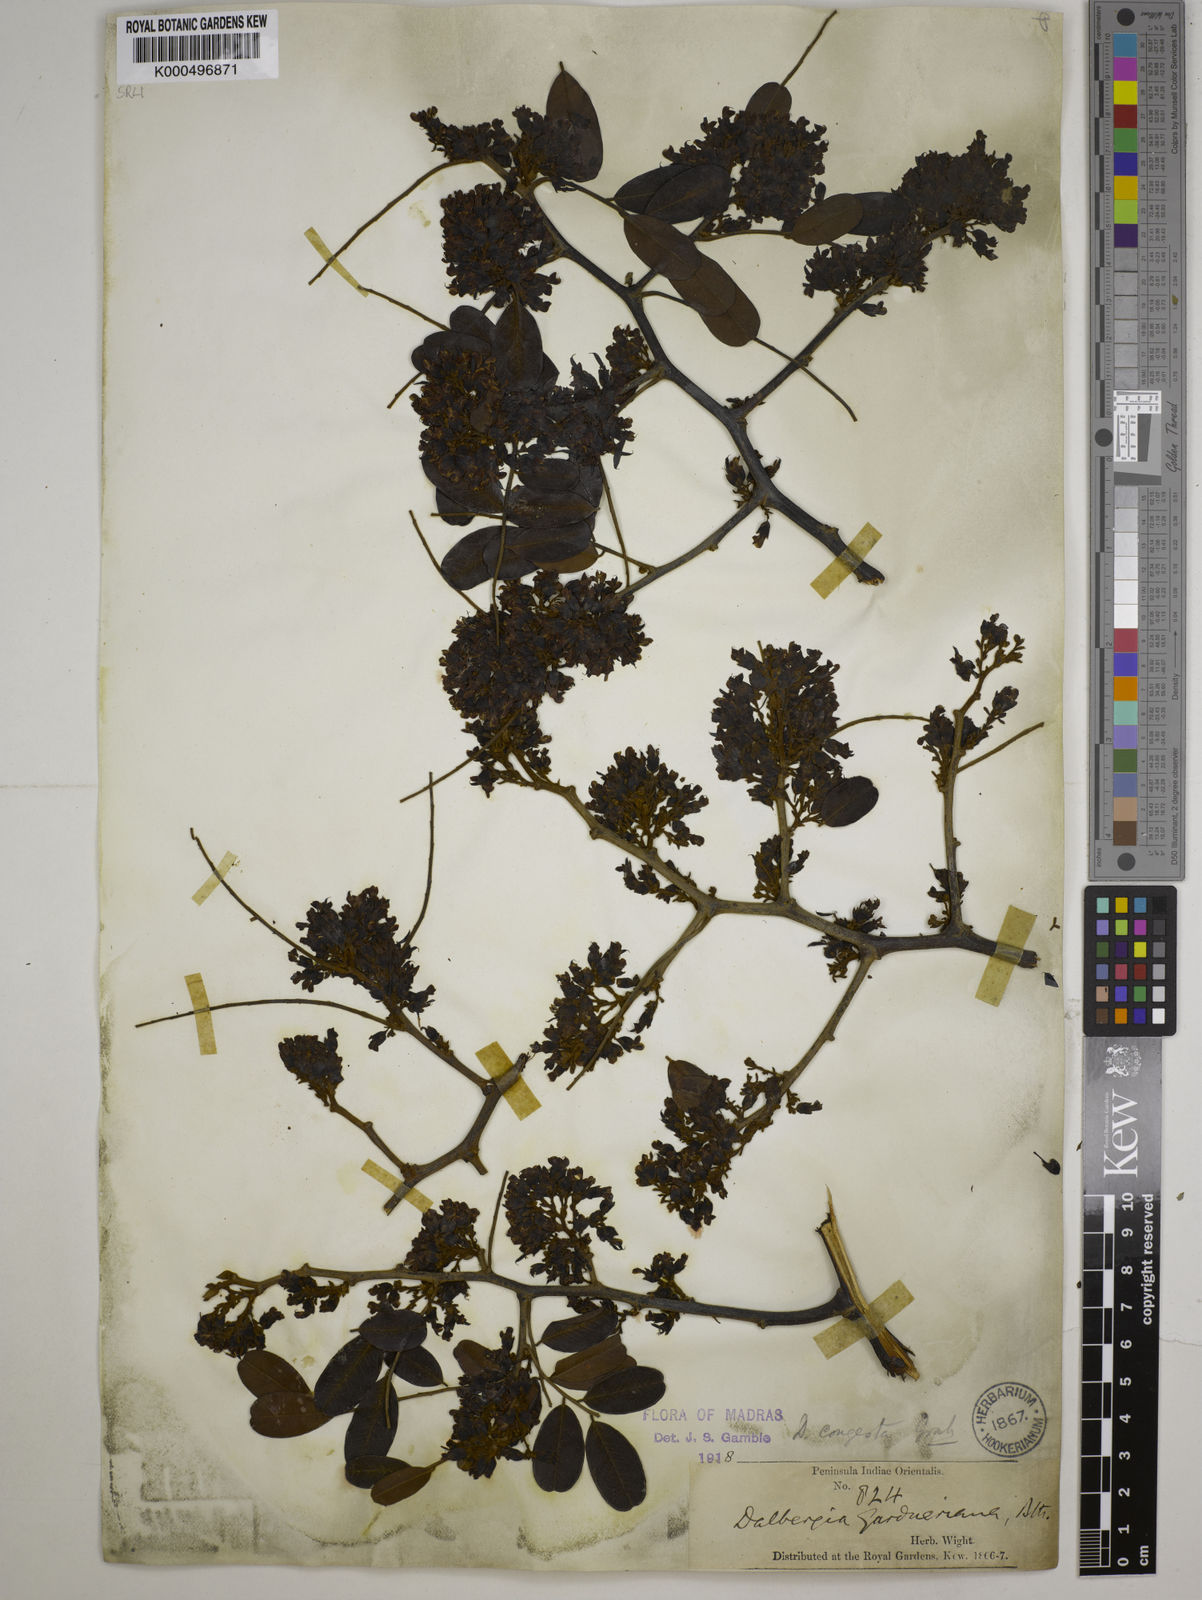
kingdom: Plantae
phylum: Tracheophyta
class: Magnoliopsida
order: Fabales
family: Fabaceae
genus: Dalbergia
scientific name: Dalbergia congesta
